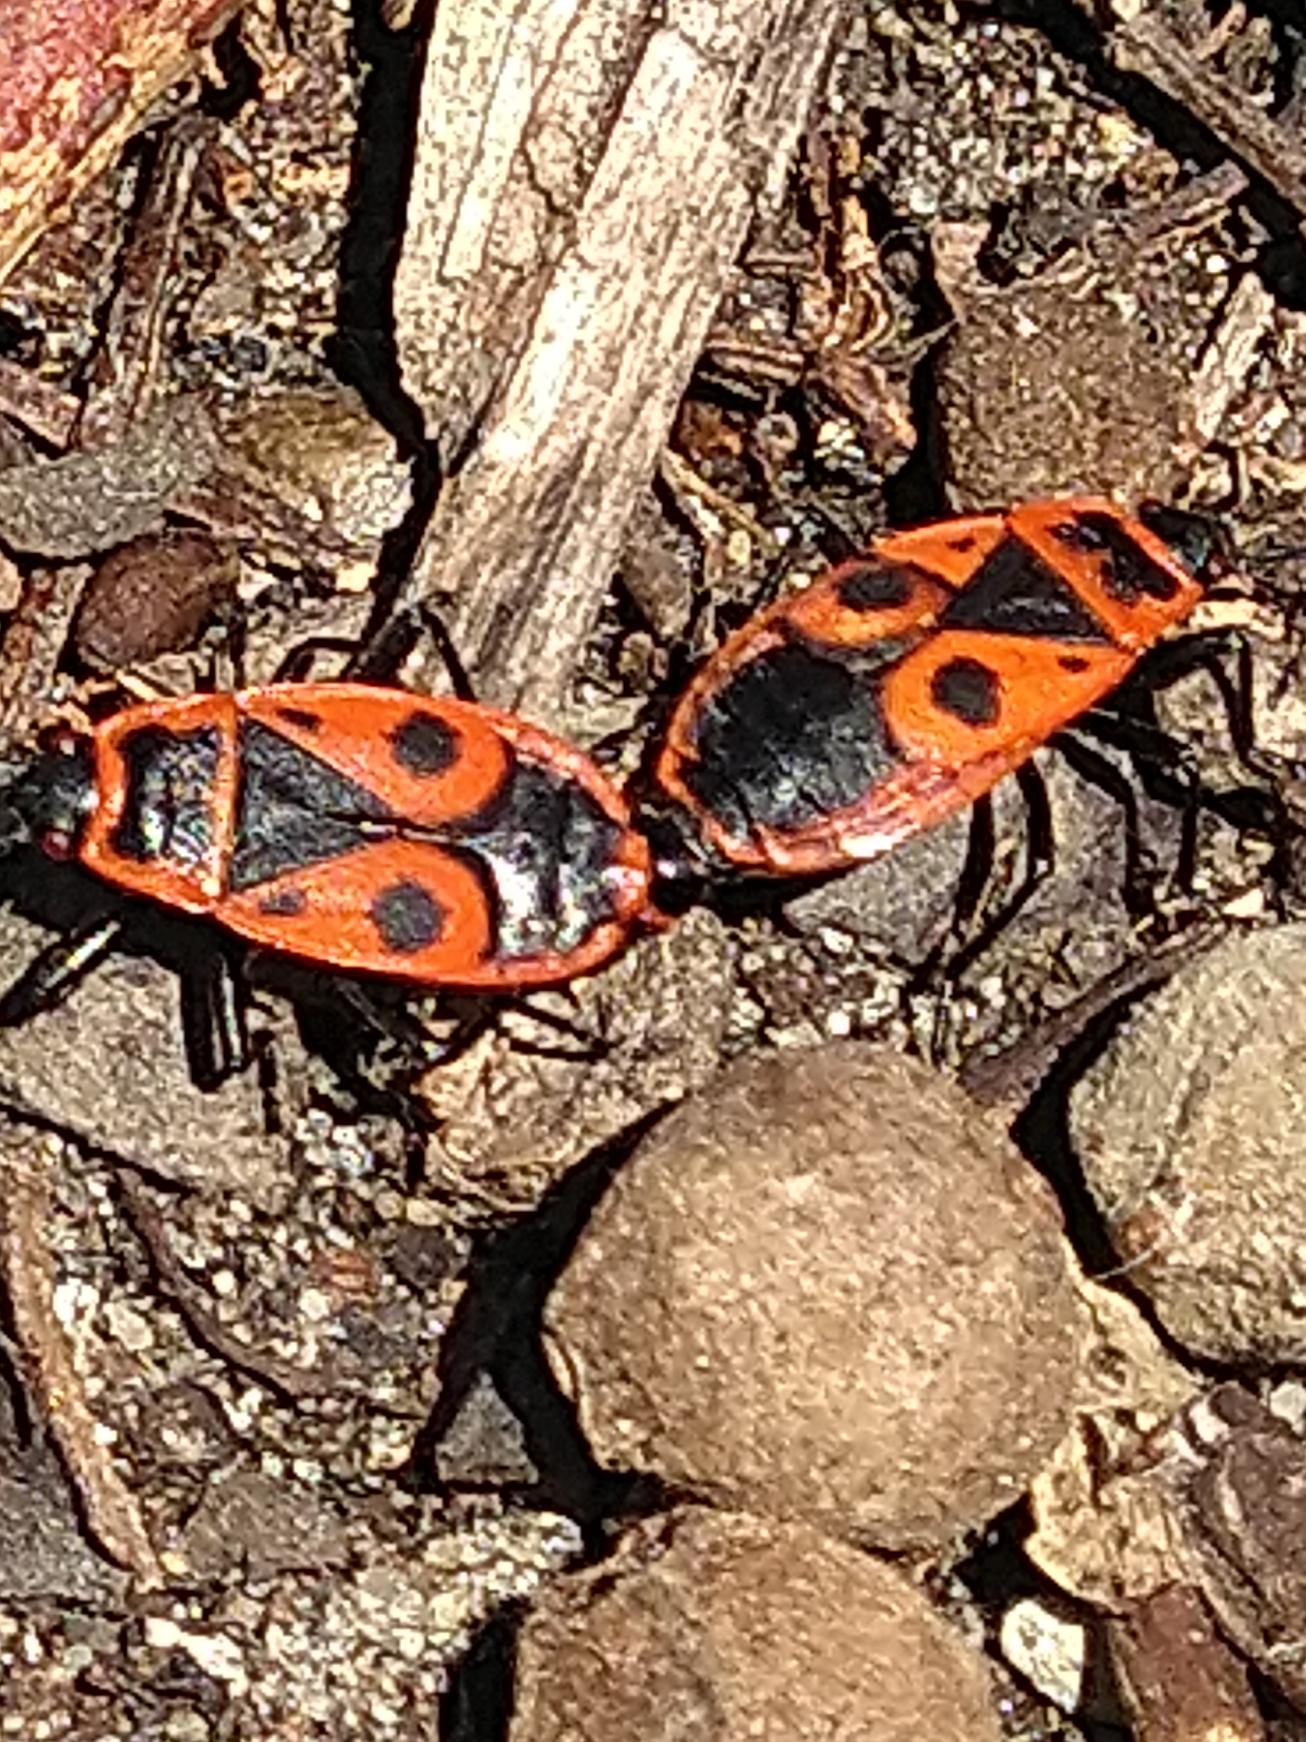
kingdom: Animalia
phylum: Arthropoda
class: Insecta
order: Hemiptera
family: Pyrrhocoridae
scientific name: Pyrrhocoridae
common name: Ildtæger
